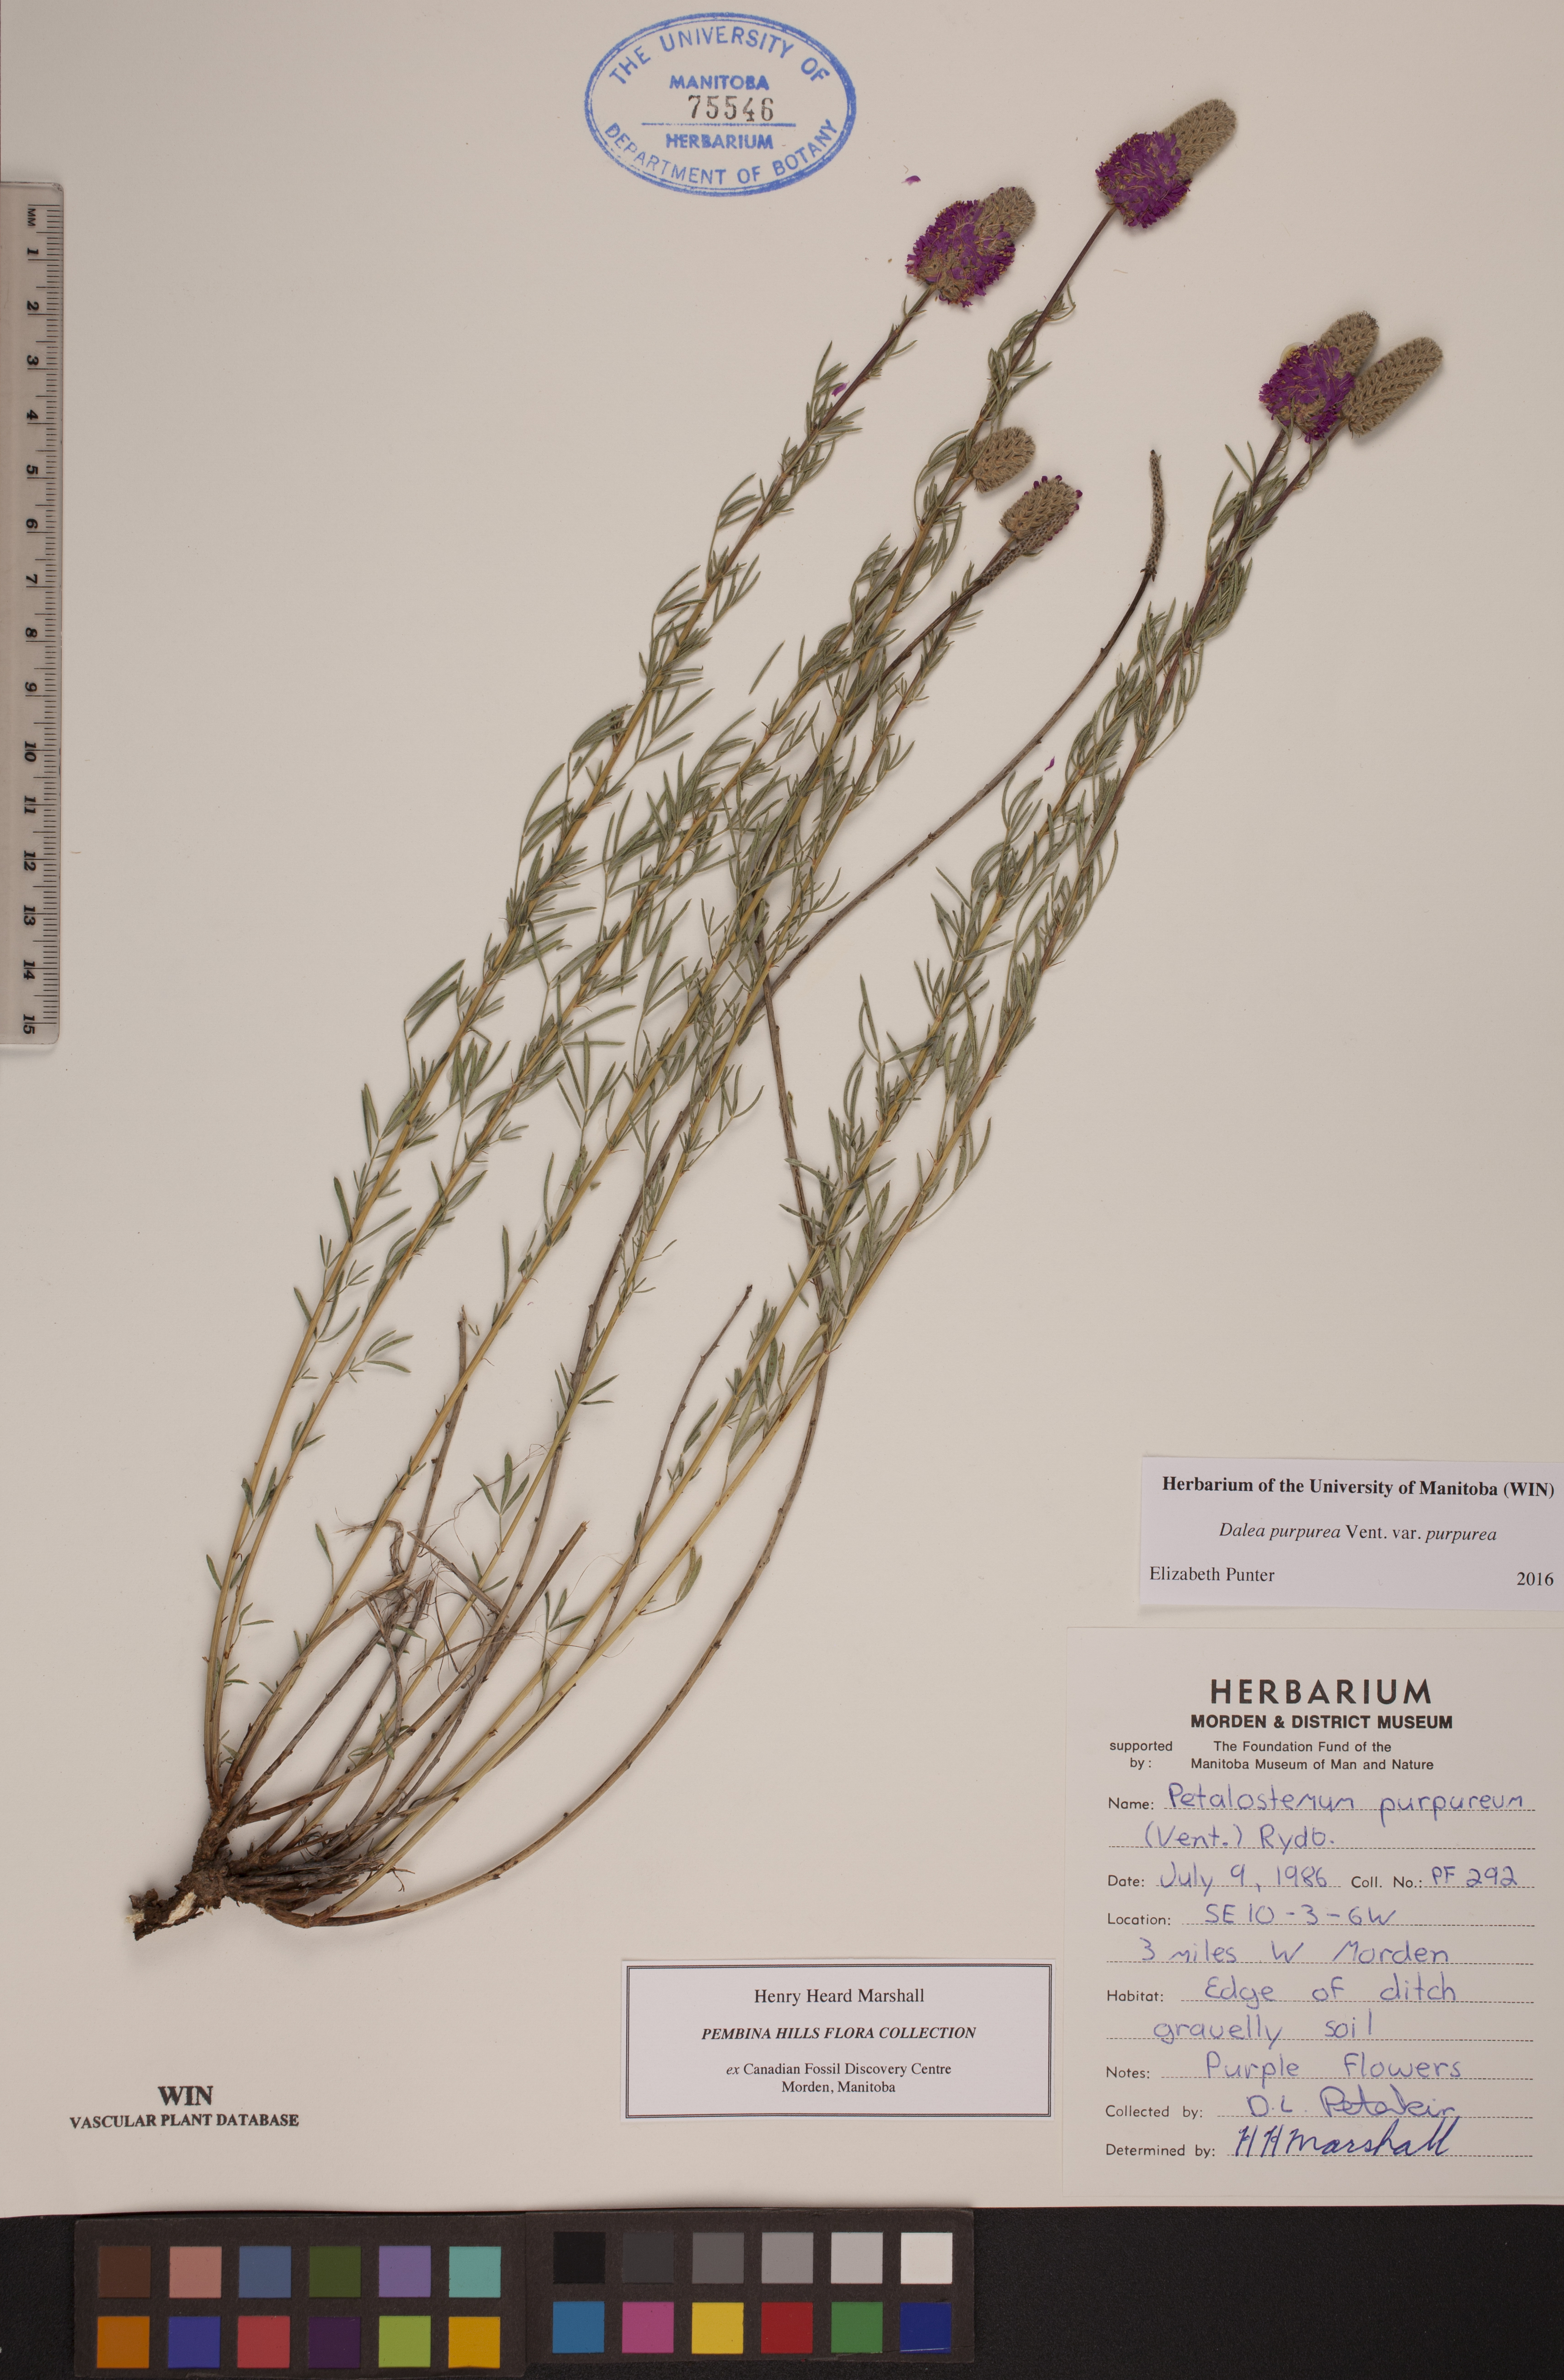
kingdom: Plantae
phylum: Tracheophyta
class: Magnoliopsida
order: Fabales
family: Fabaceae
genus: Dalea
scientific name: Dalea purpurea
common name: Purple prairie-clover
